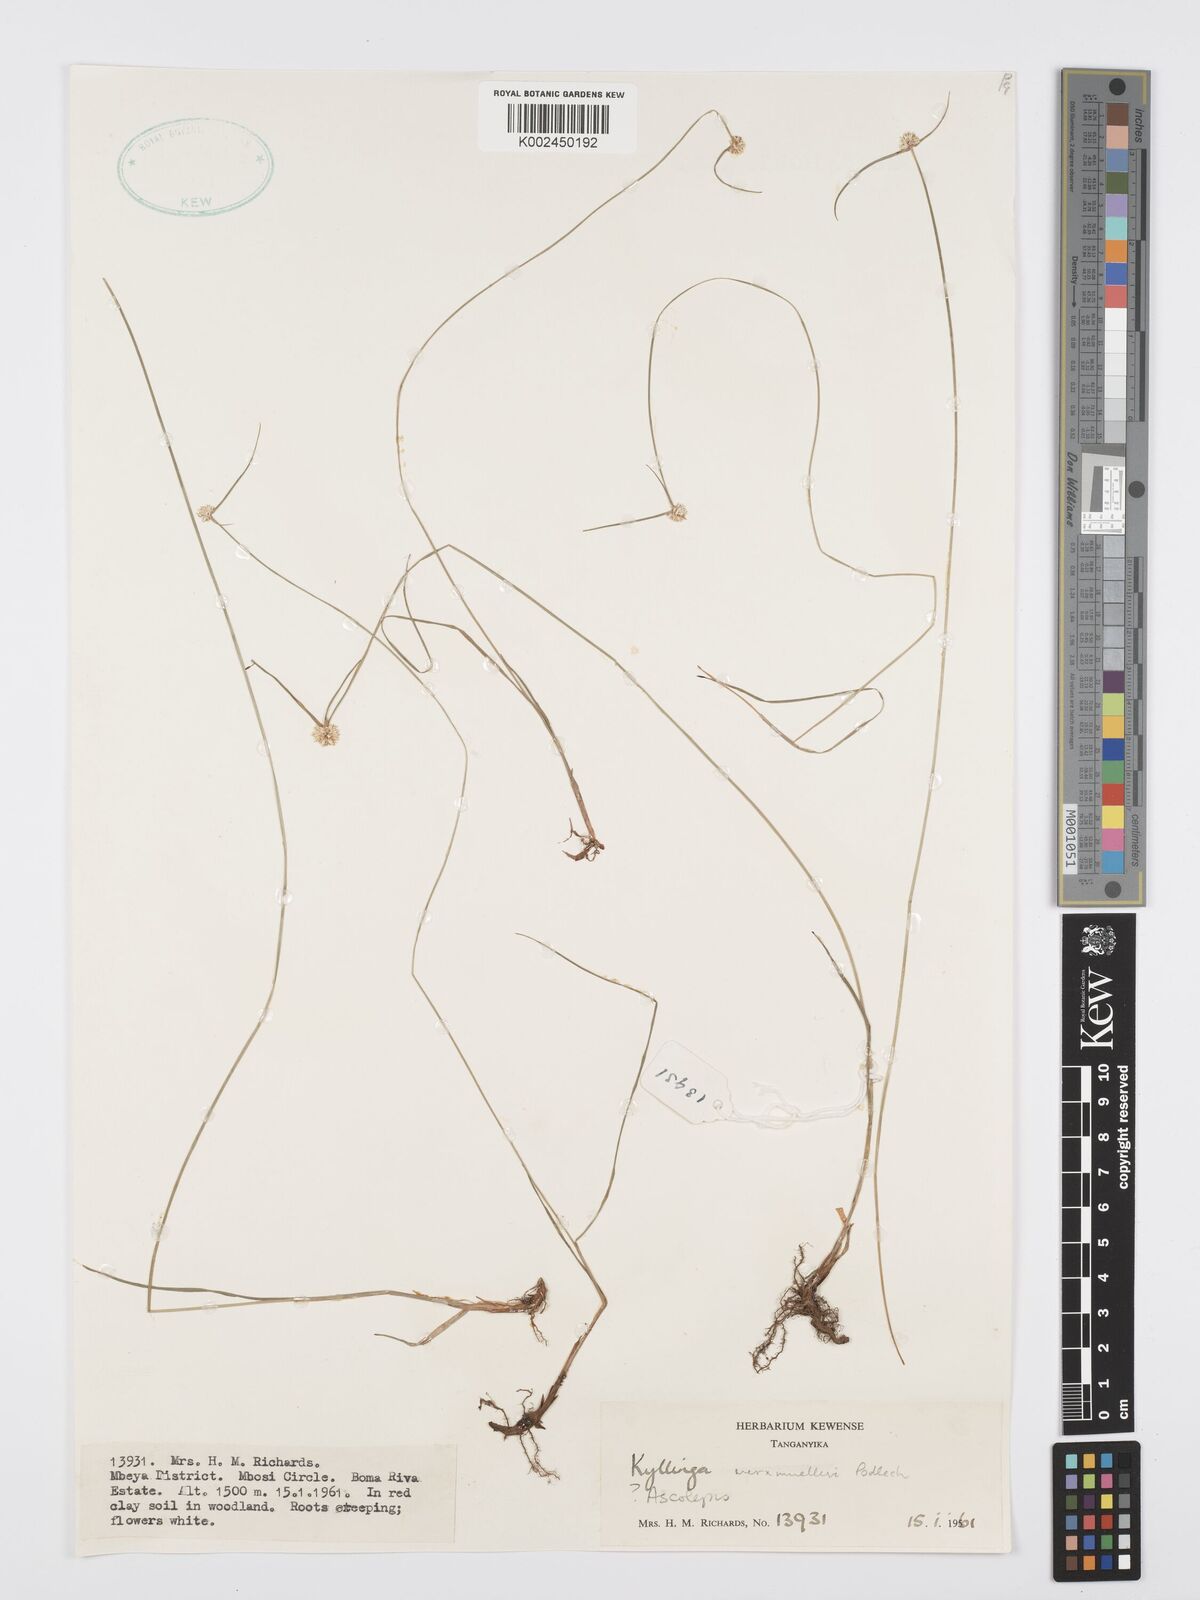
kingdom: Plantae
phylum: Tracheophyta
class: Liliopsida
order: Poales
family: Cyperaceae
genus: Cyperus
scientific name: Cyperus albiceps
